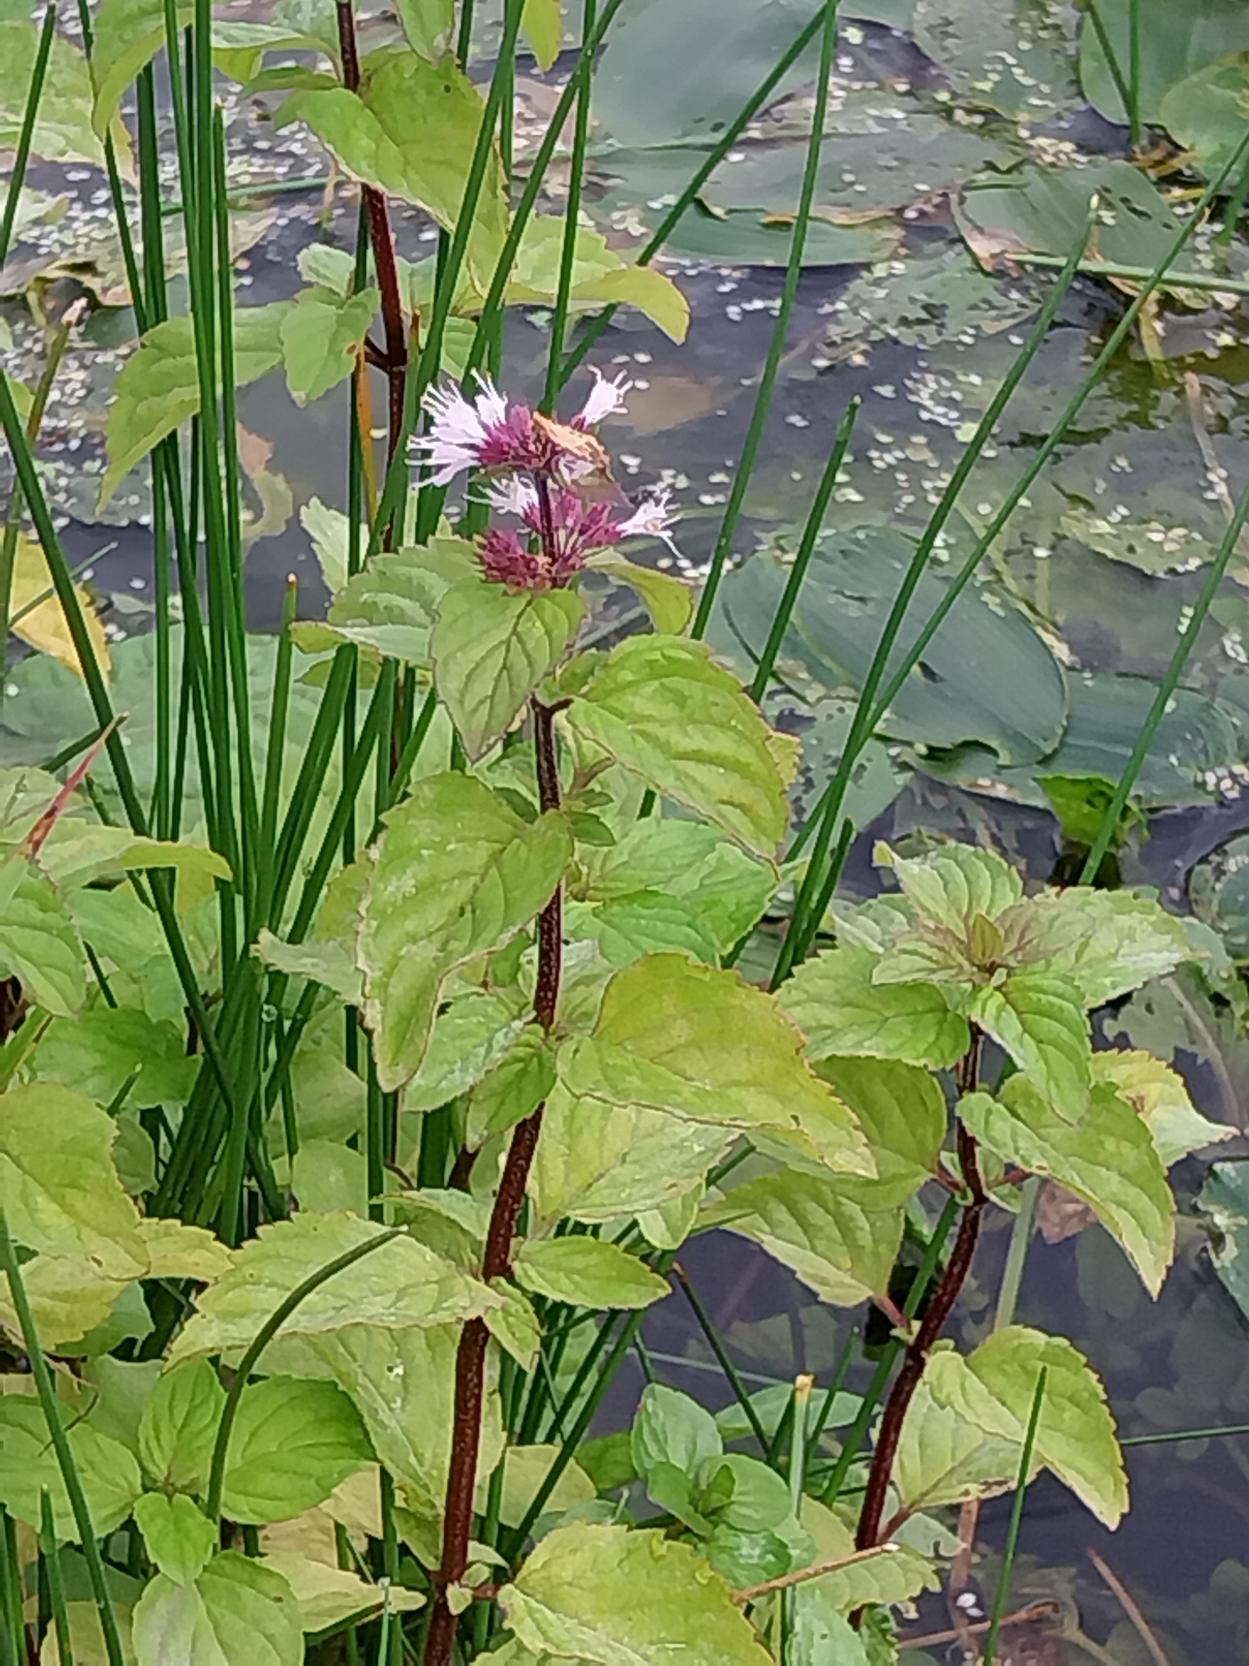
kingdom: Plantae
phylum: Tracheophyta
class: Magnoliopsida
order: Lamiales
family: Lamiaceae
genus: Mentha
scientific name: Mentha aquatica
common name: Vand-mynte
